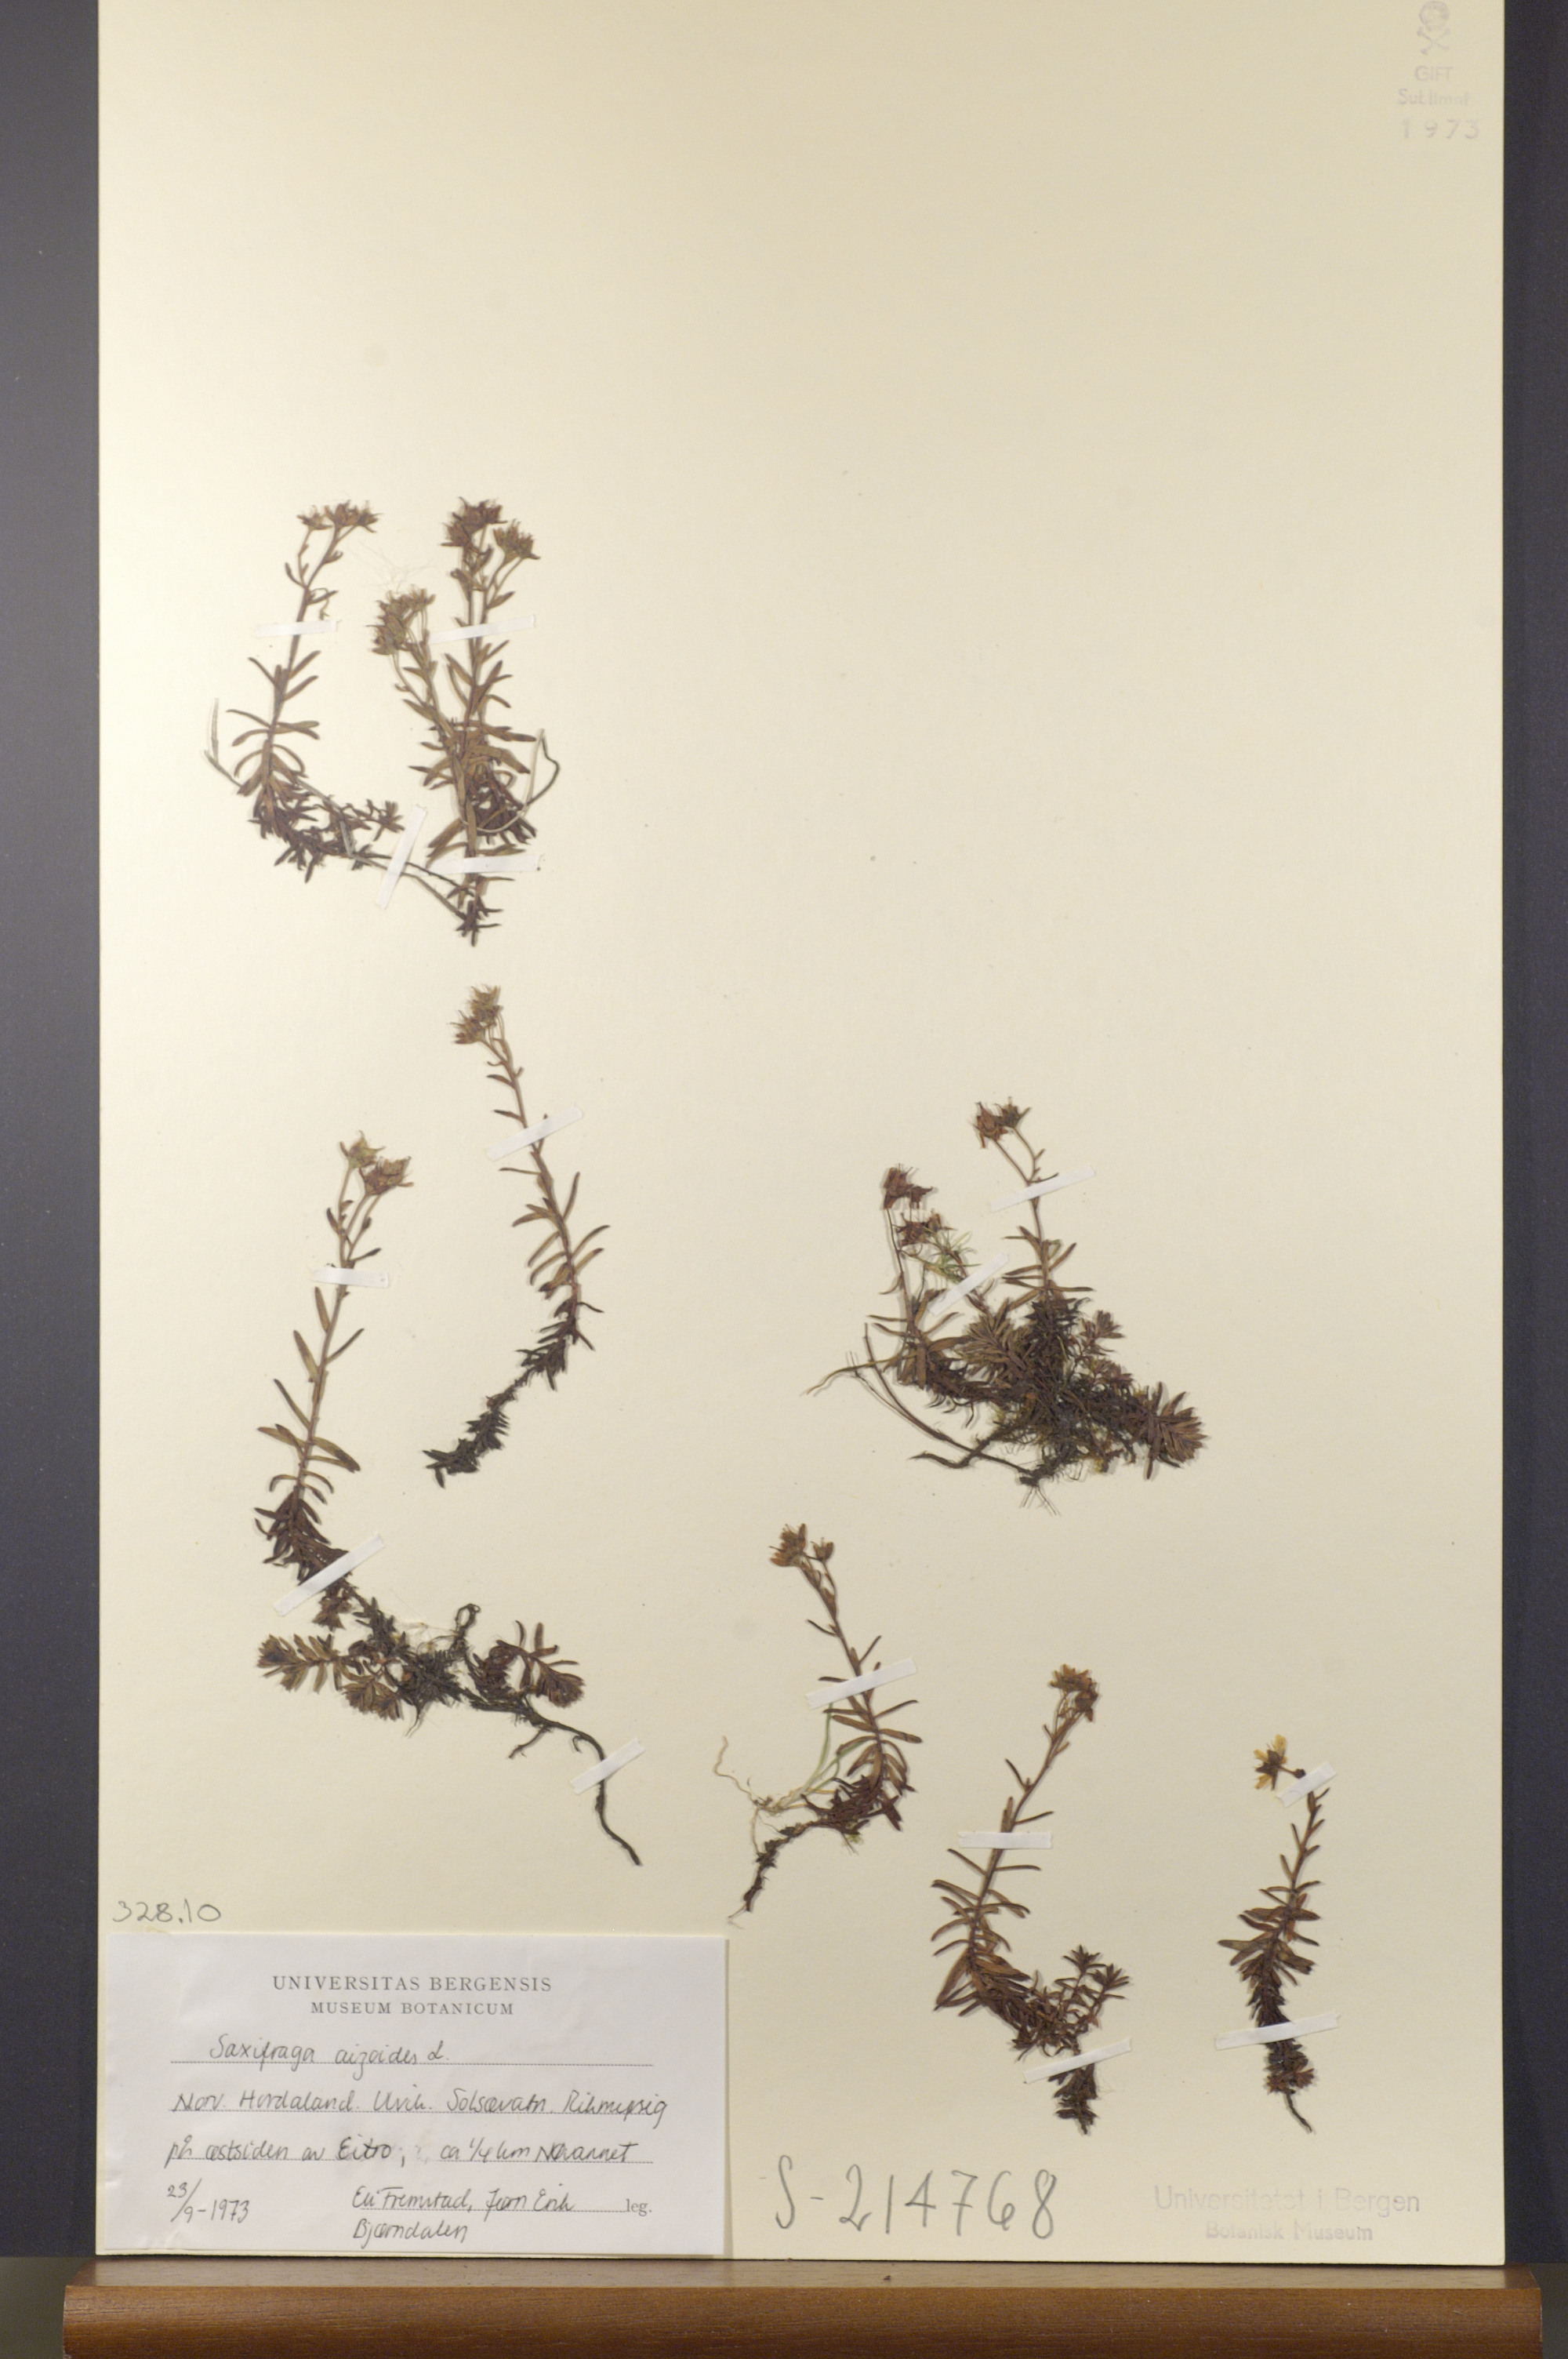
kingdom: Plantae
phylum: Tracheophyta
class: Magnoliopsida
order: Saxifragales
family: Saxifragaceae
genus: Saxifraga
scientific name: Saxifraga aizoides
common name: Yellow mountain saxifrage
